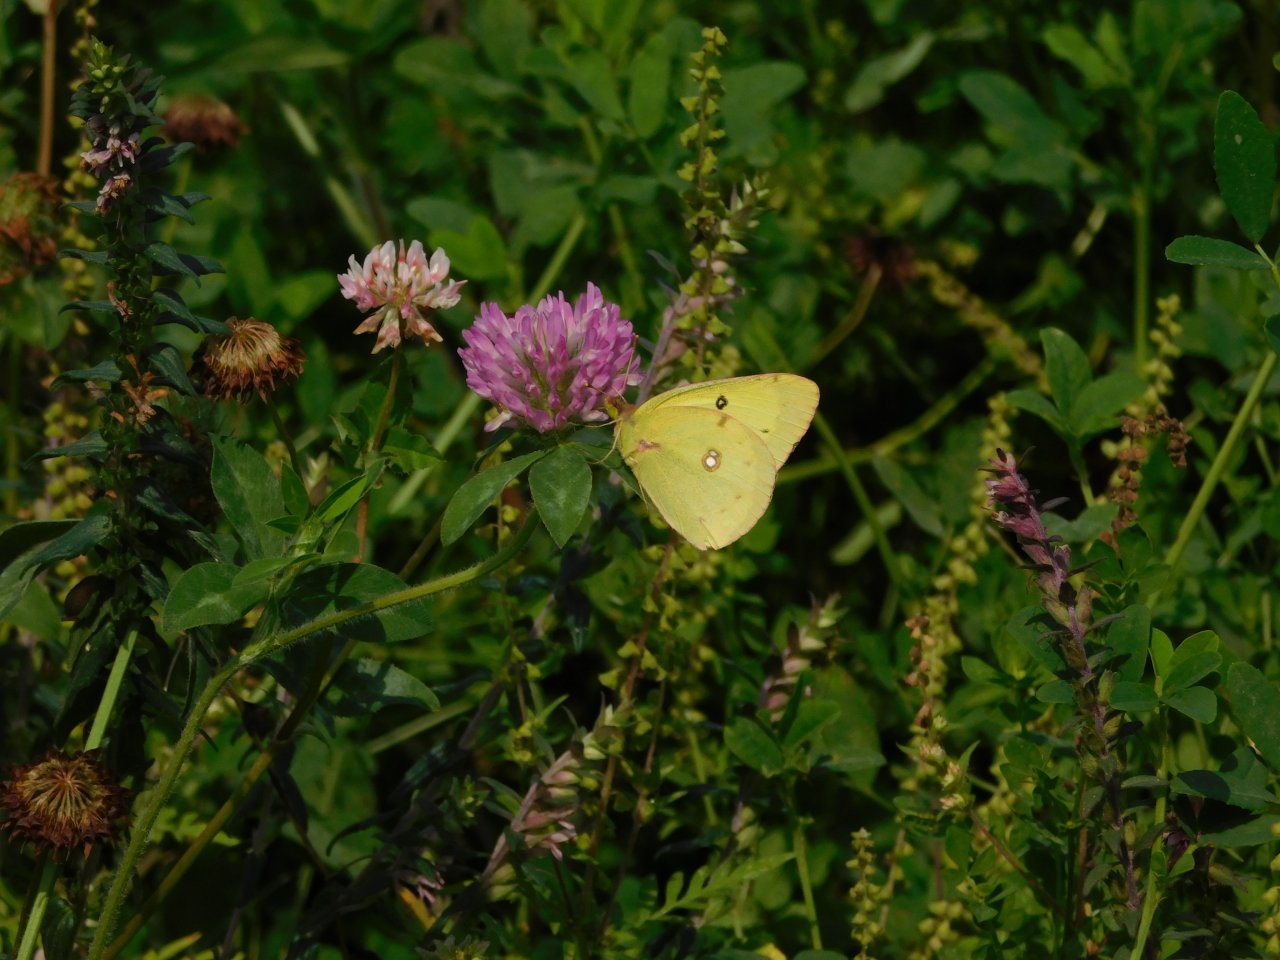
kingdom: Animalia
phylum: Arthropoda
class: Insecta
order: Lepidoptera
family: Pieridae
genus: Colias
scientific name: Colias philodice
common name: Clouded Sulphur
